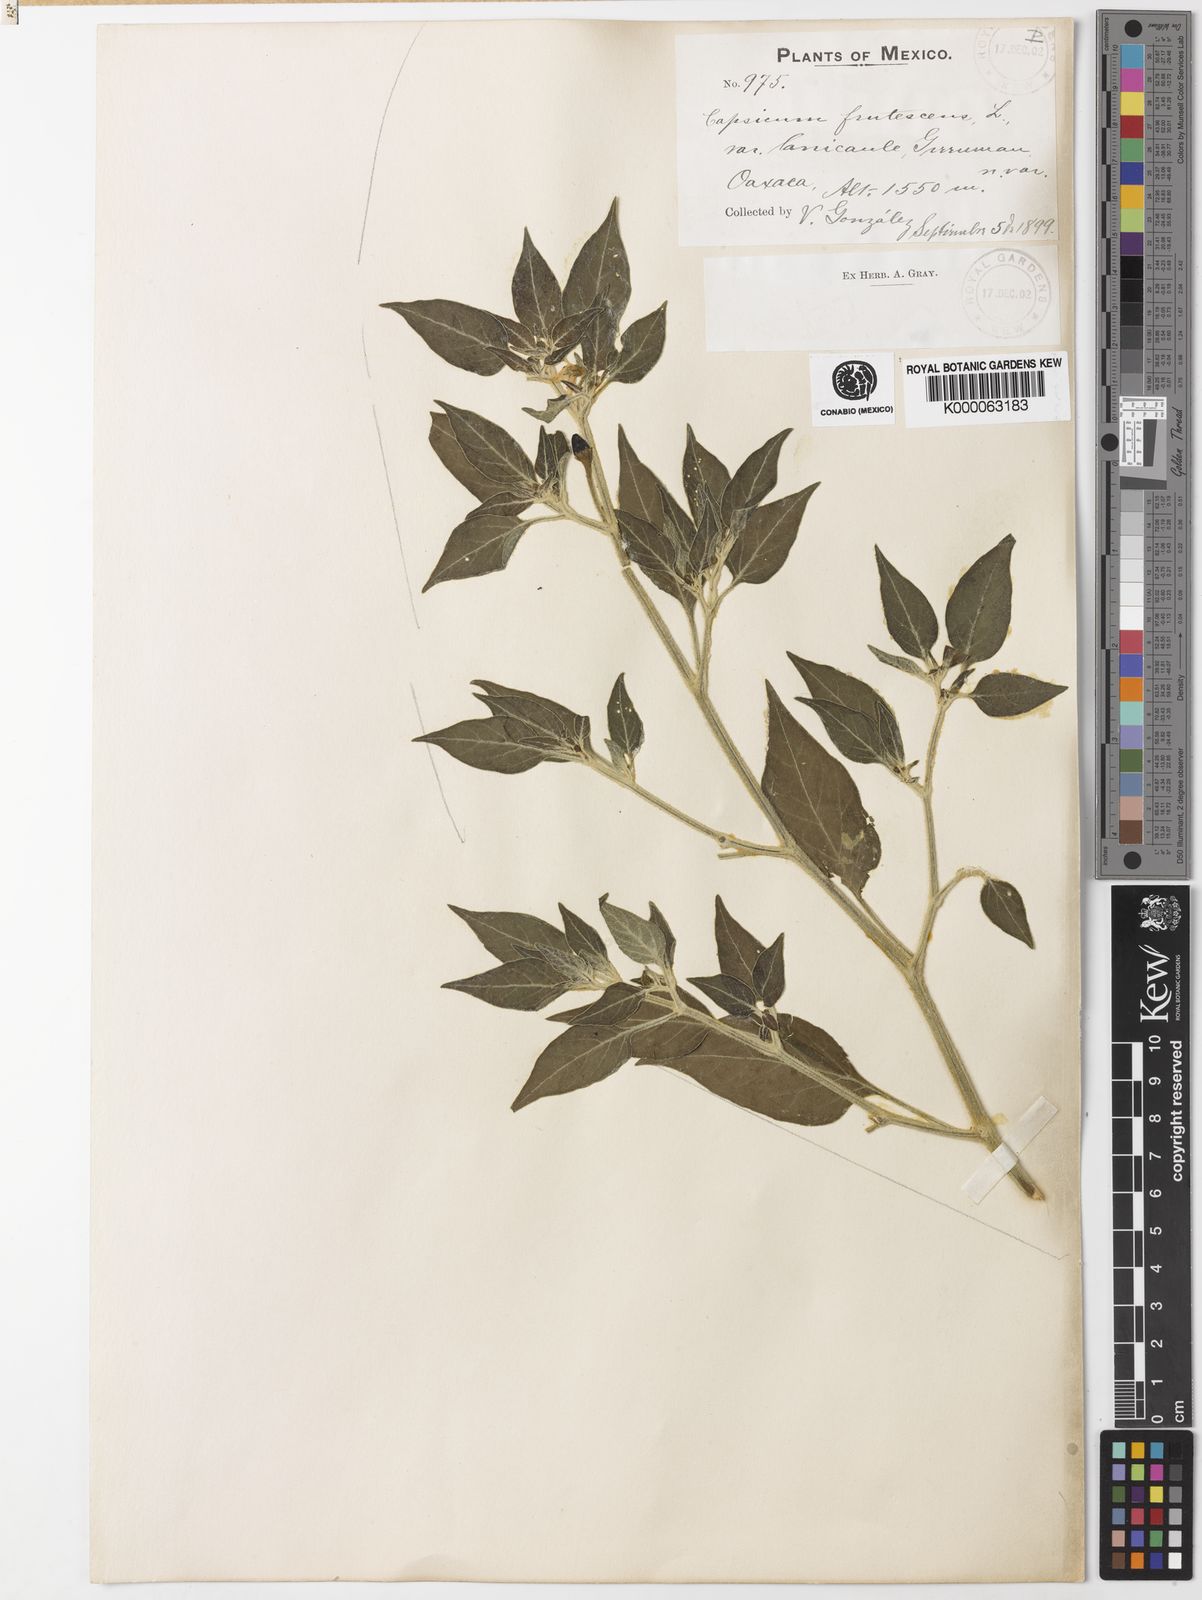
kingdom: Plantae
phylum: Tracheophyta
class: Magnoliopsida
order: Solanales
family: Solanaceae
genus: Capsicum
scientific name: Capsicum frutescens
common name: Bird pepper
